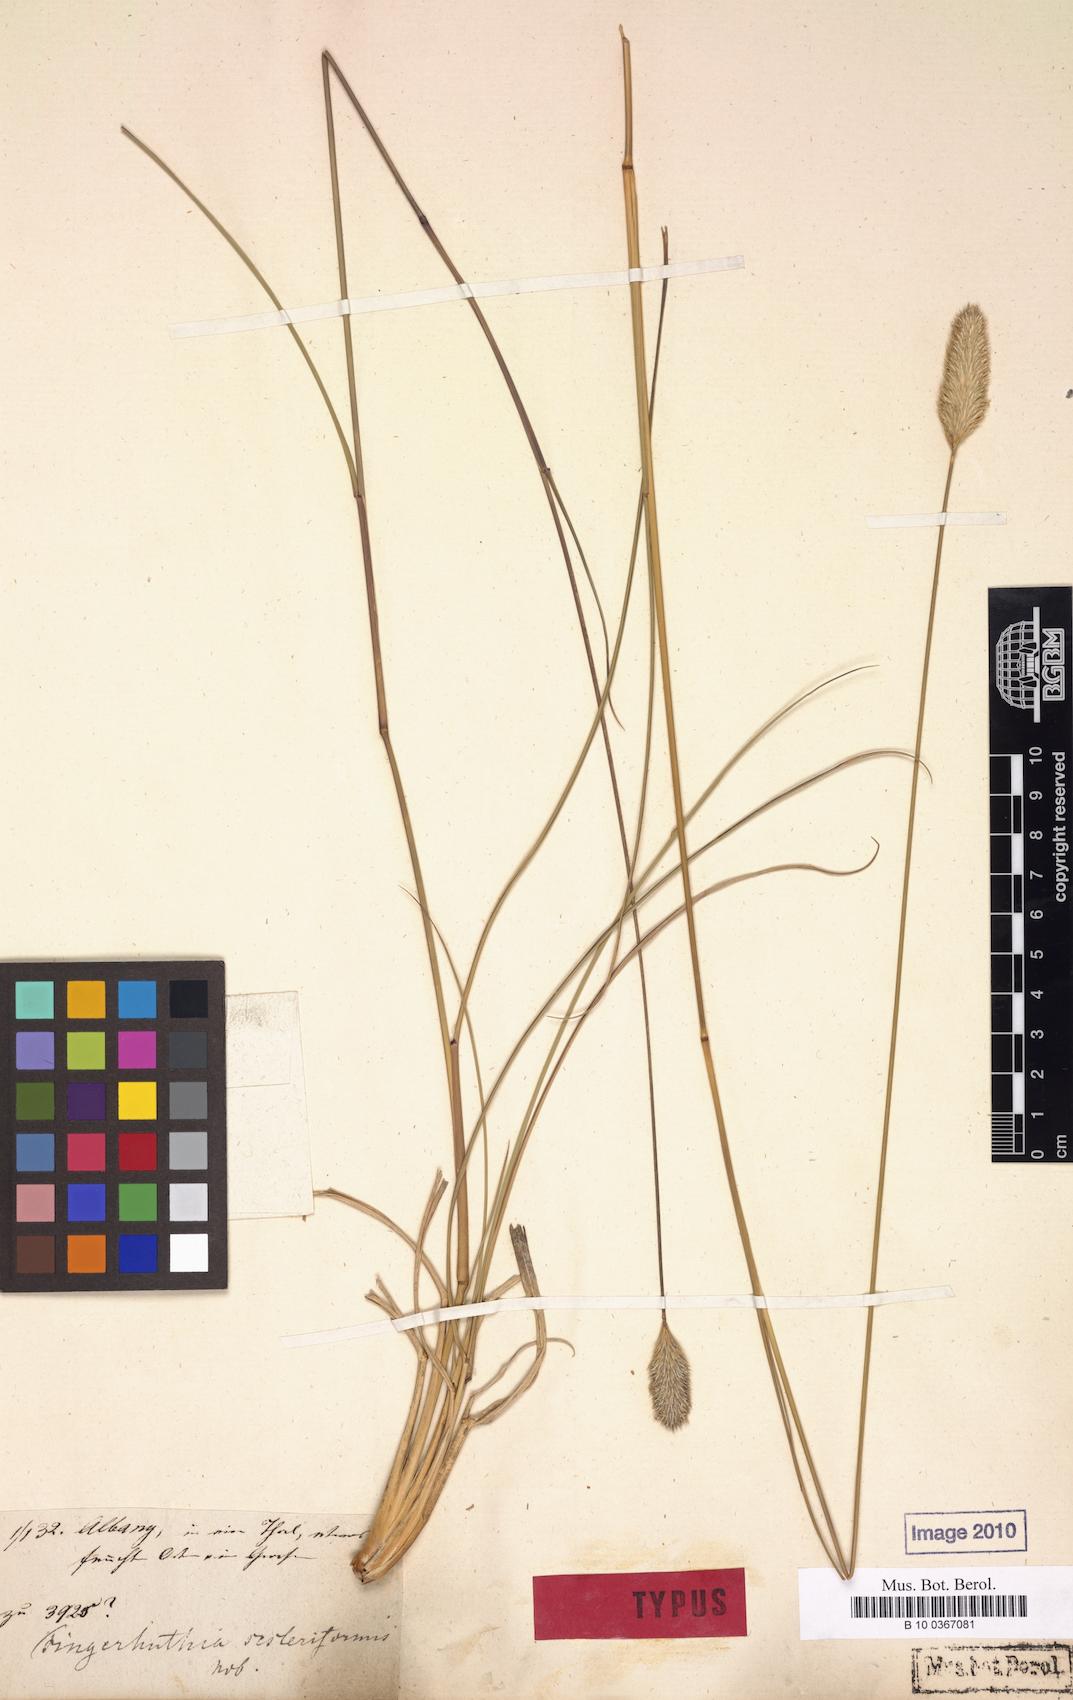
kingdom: Plantae
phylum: Tracheophyta
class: Liliopsida
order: Poales
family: Poaceae
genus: Fingerhuthia
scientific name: Fingerhuthia sesleriiformis
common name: Thimble grass
